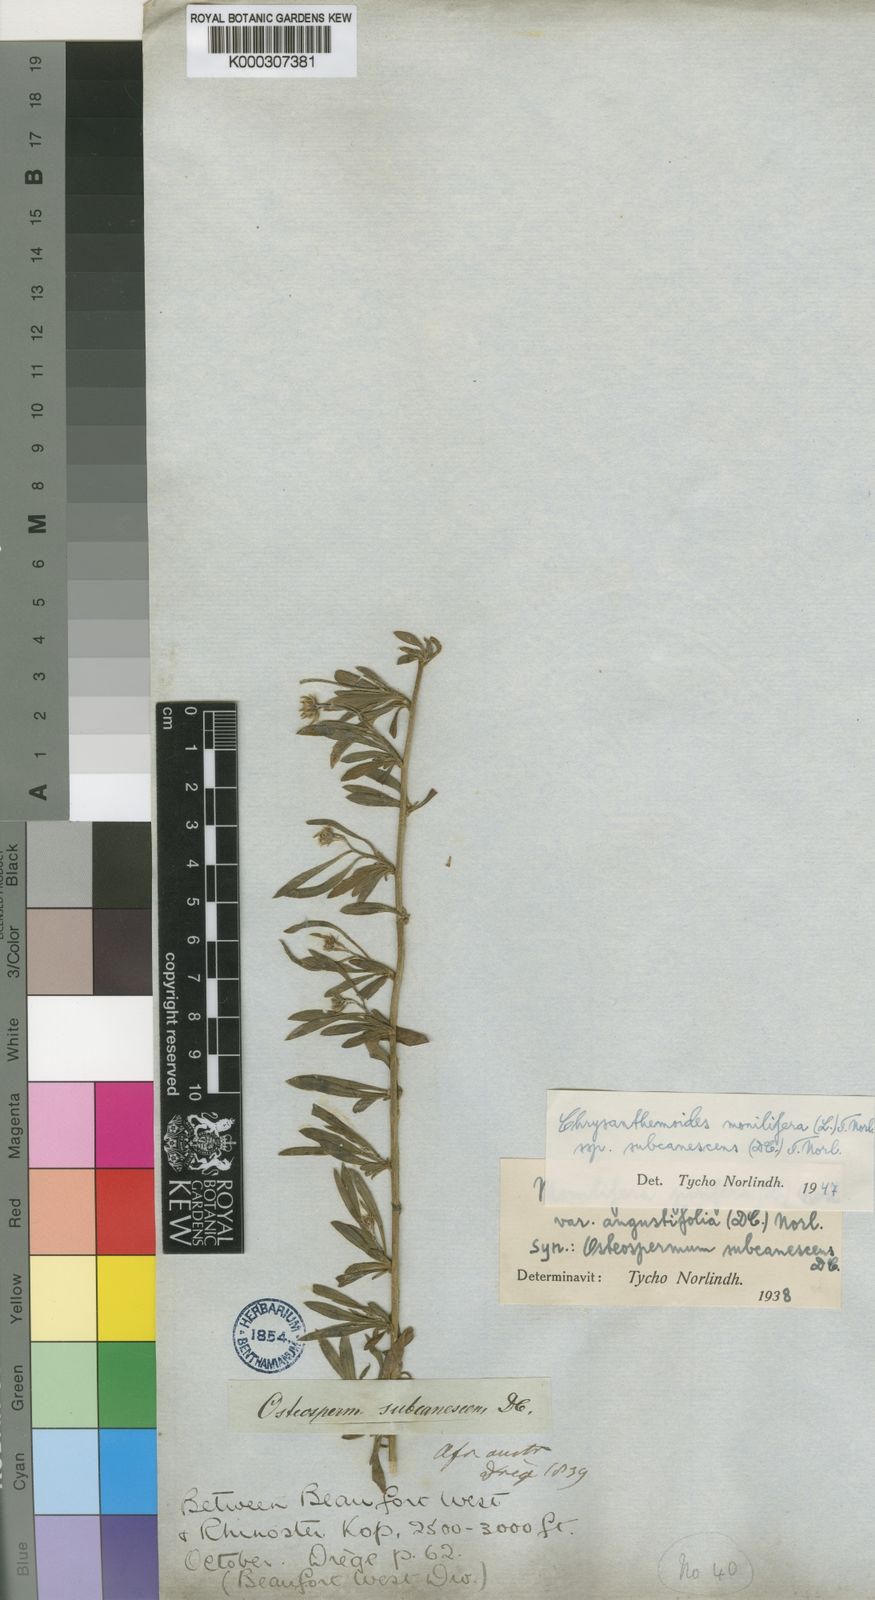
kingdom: Plantae
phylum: Tracheophyta
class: Magnoliopsida
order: Asterales
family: Asteraceae
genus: Osteospermum
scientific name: Osteospermum moniliferum
